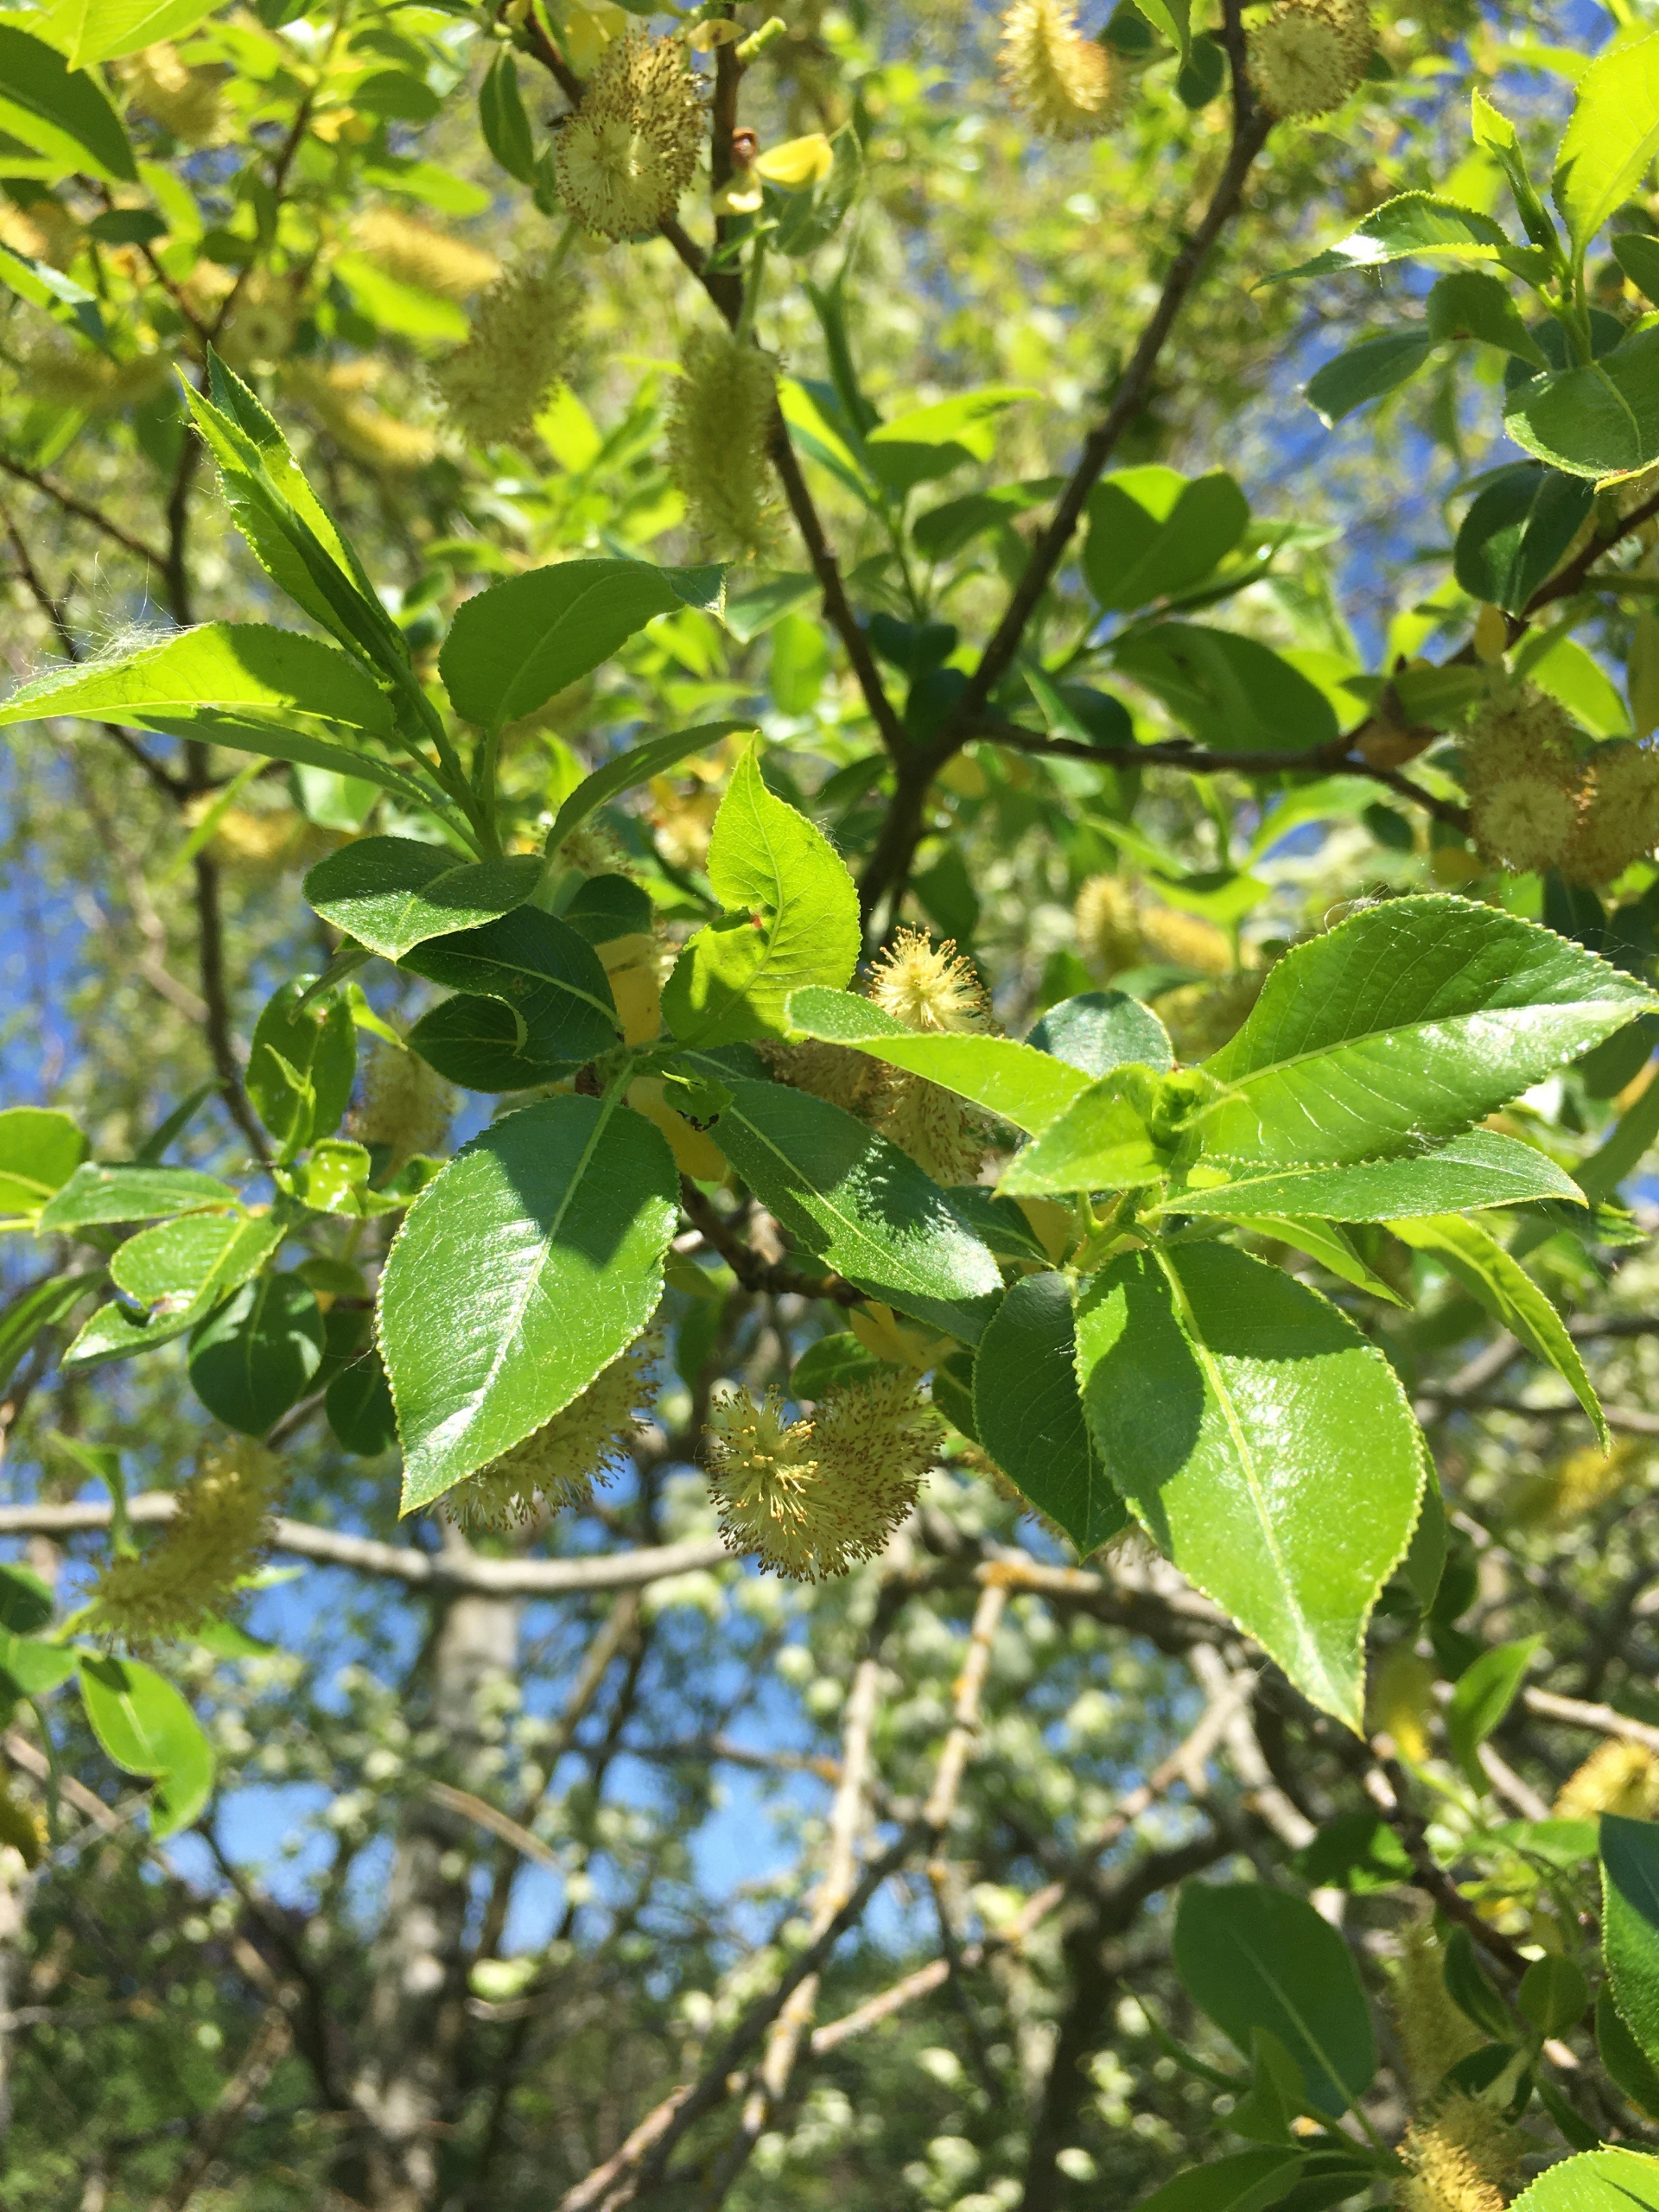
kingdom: Plantae
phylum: Tracheophyta
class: Magnoliopsida
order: Malpighiales
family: Salicaceae
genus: Salix
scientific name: Salix pentandra
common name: Femhannet pil
